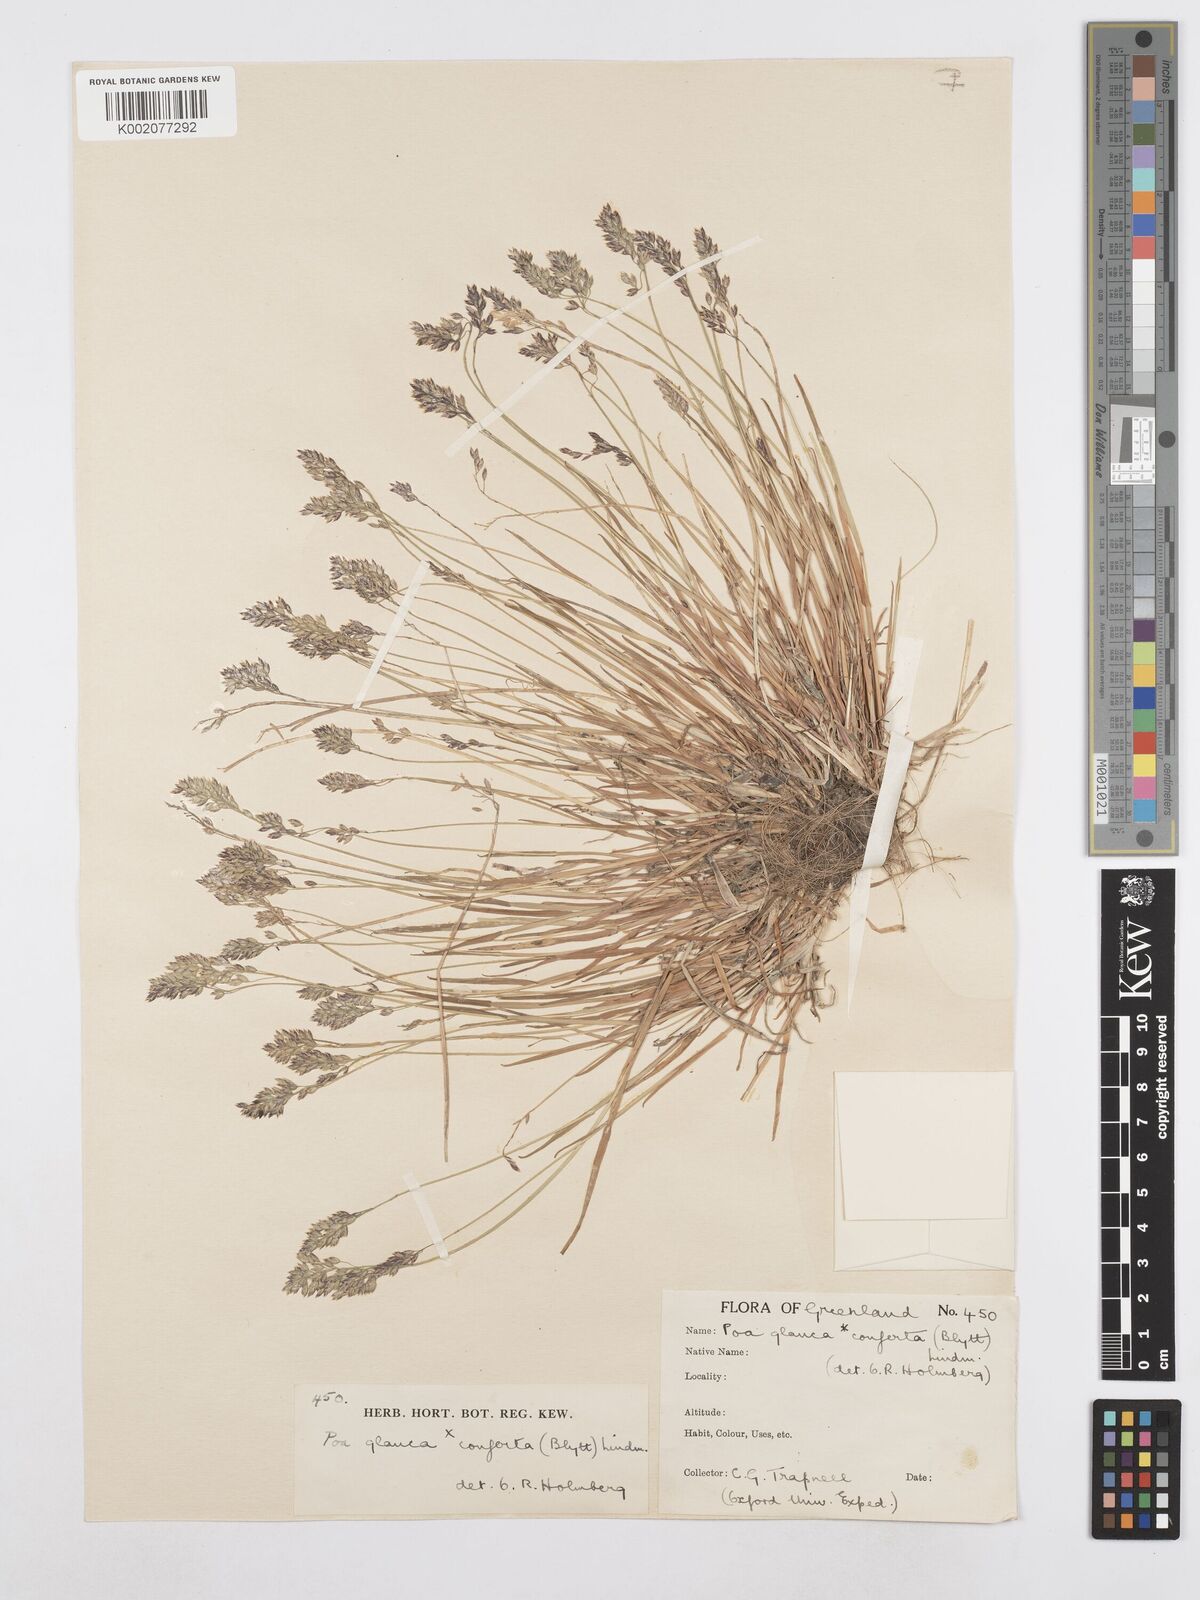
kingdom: Plantae
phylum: Tracheophyta
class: Liliopsida
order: Poales
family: Poaceae
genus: Poa
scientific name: Poa glauca
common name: Glaucous bluegrass
